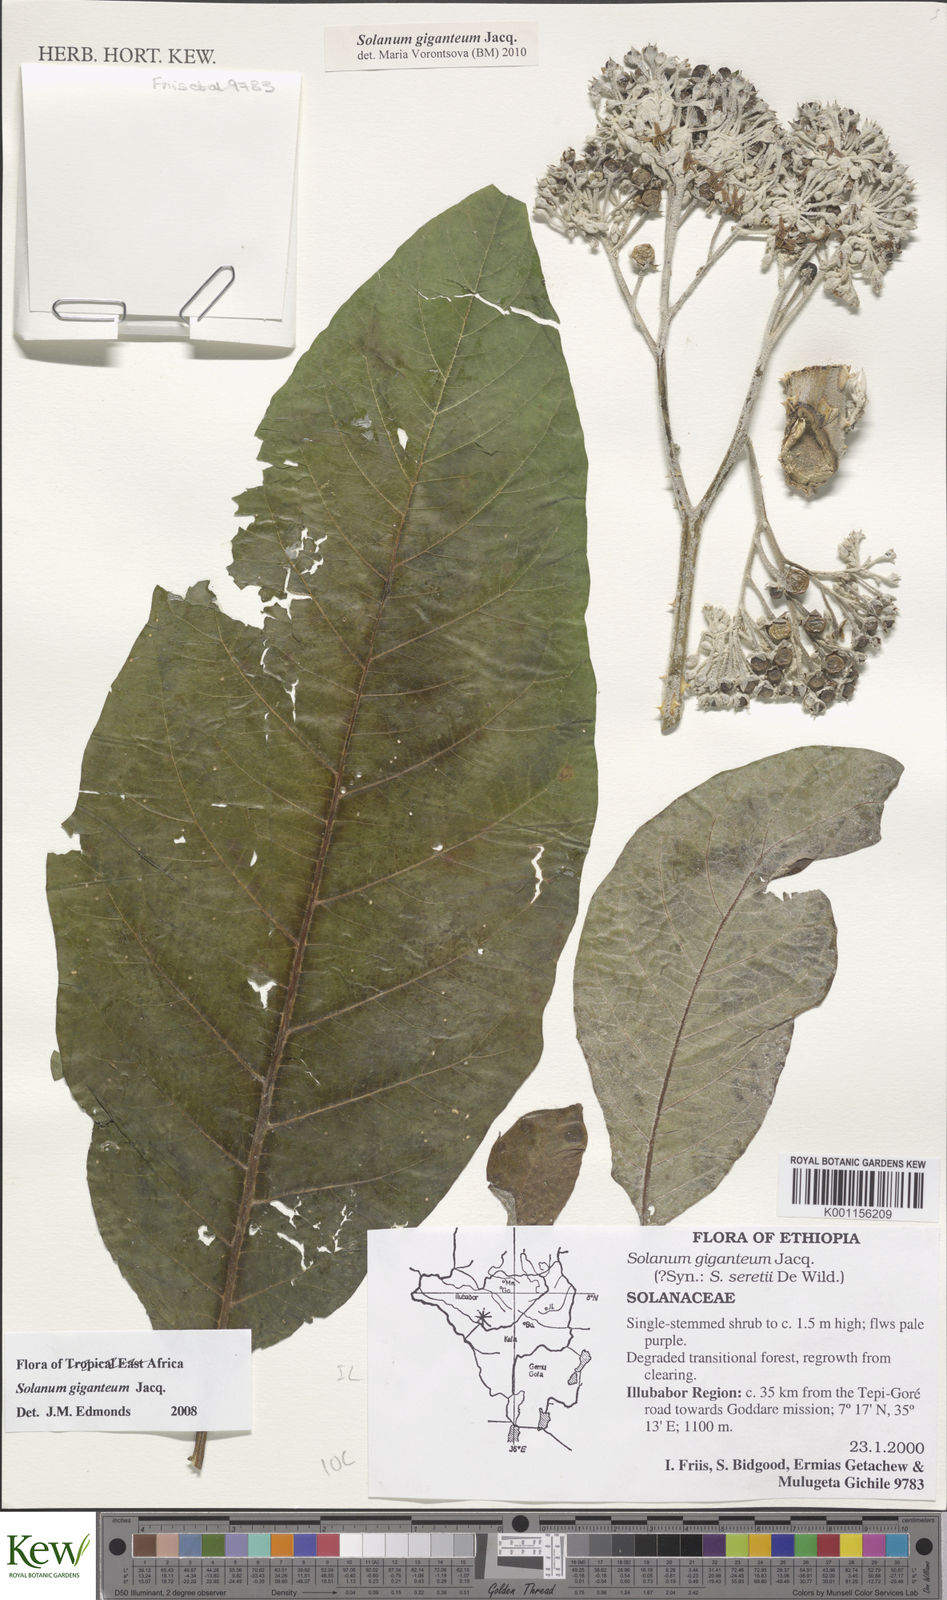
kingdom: Plantae
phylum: Tracheophyta
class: Magnoliopsida
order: Solanales
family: Solanaceae
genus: Solanum
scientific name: Solanum giganteum
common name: Healing-leaf-tree
